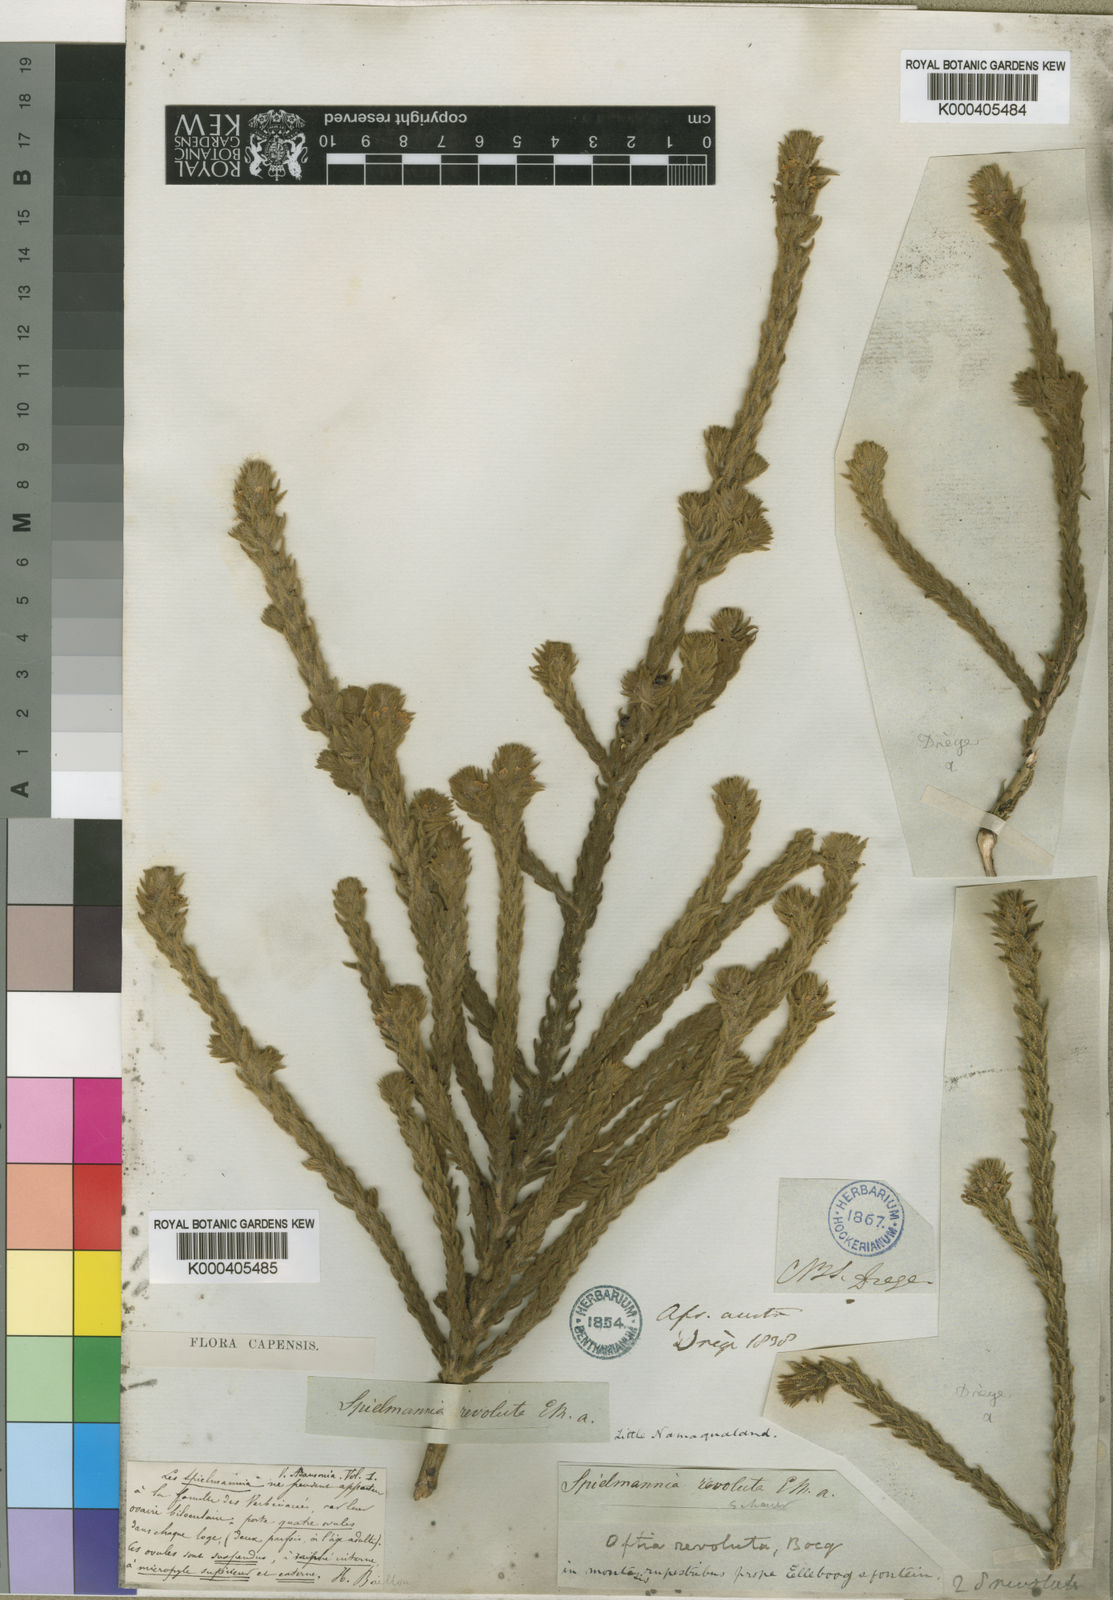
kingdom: Plantae
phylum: Tracheophyta
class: Magnoliopsida
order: Lamiales
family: Scrophulariaceae
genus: Oftia
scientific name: Oftia
